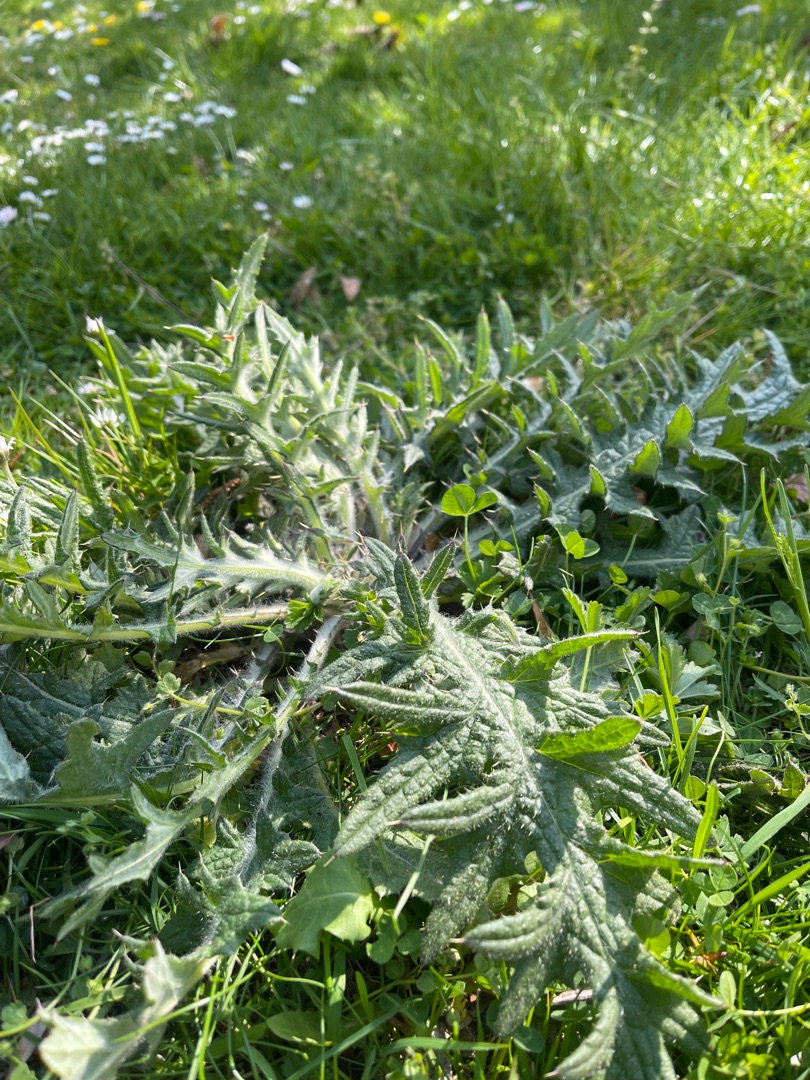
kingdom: Plantae
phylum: Tracheophyta
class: Magnoliopsida
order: Asterales
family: Asteraceae
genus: Cirsium
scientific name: Cirsium vulgare
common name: Horse-tidsel
